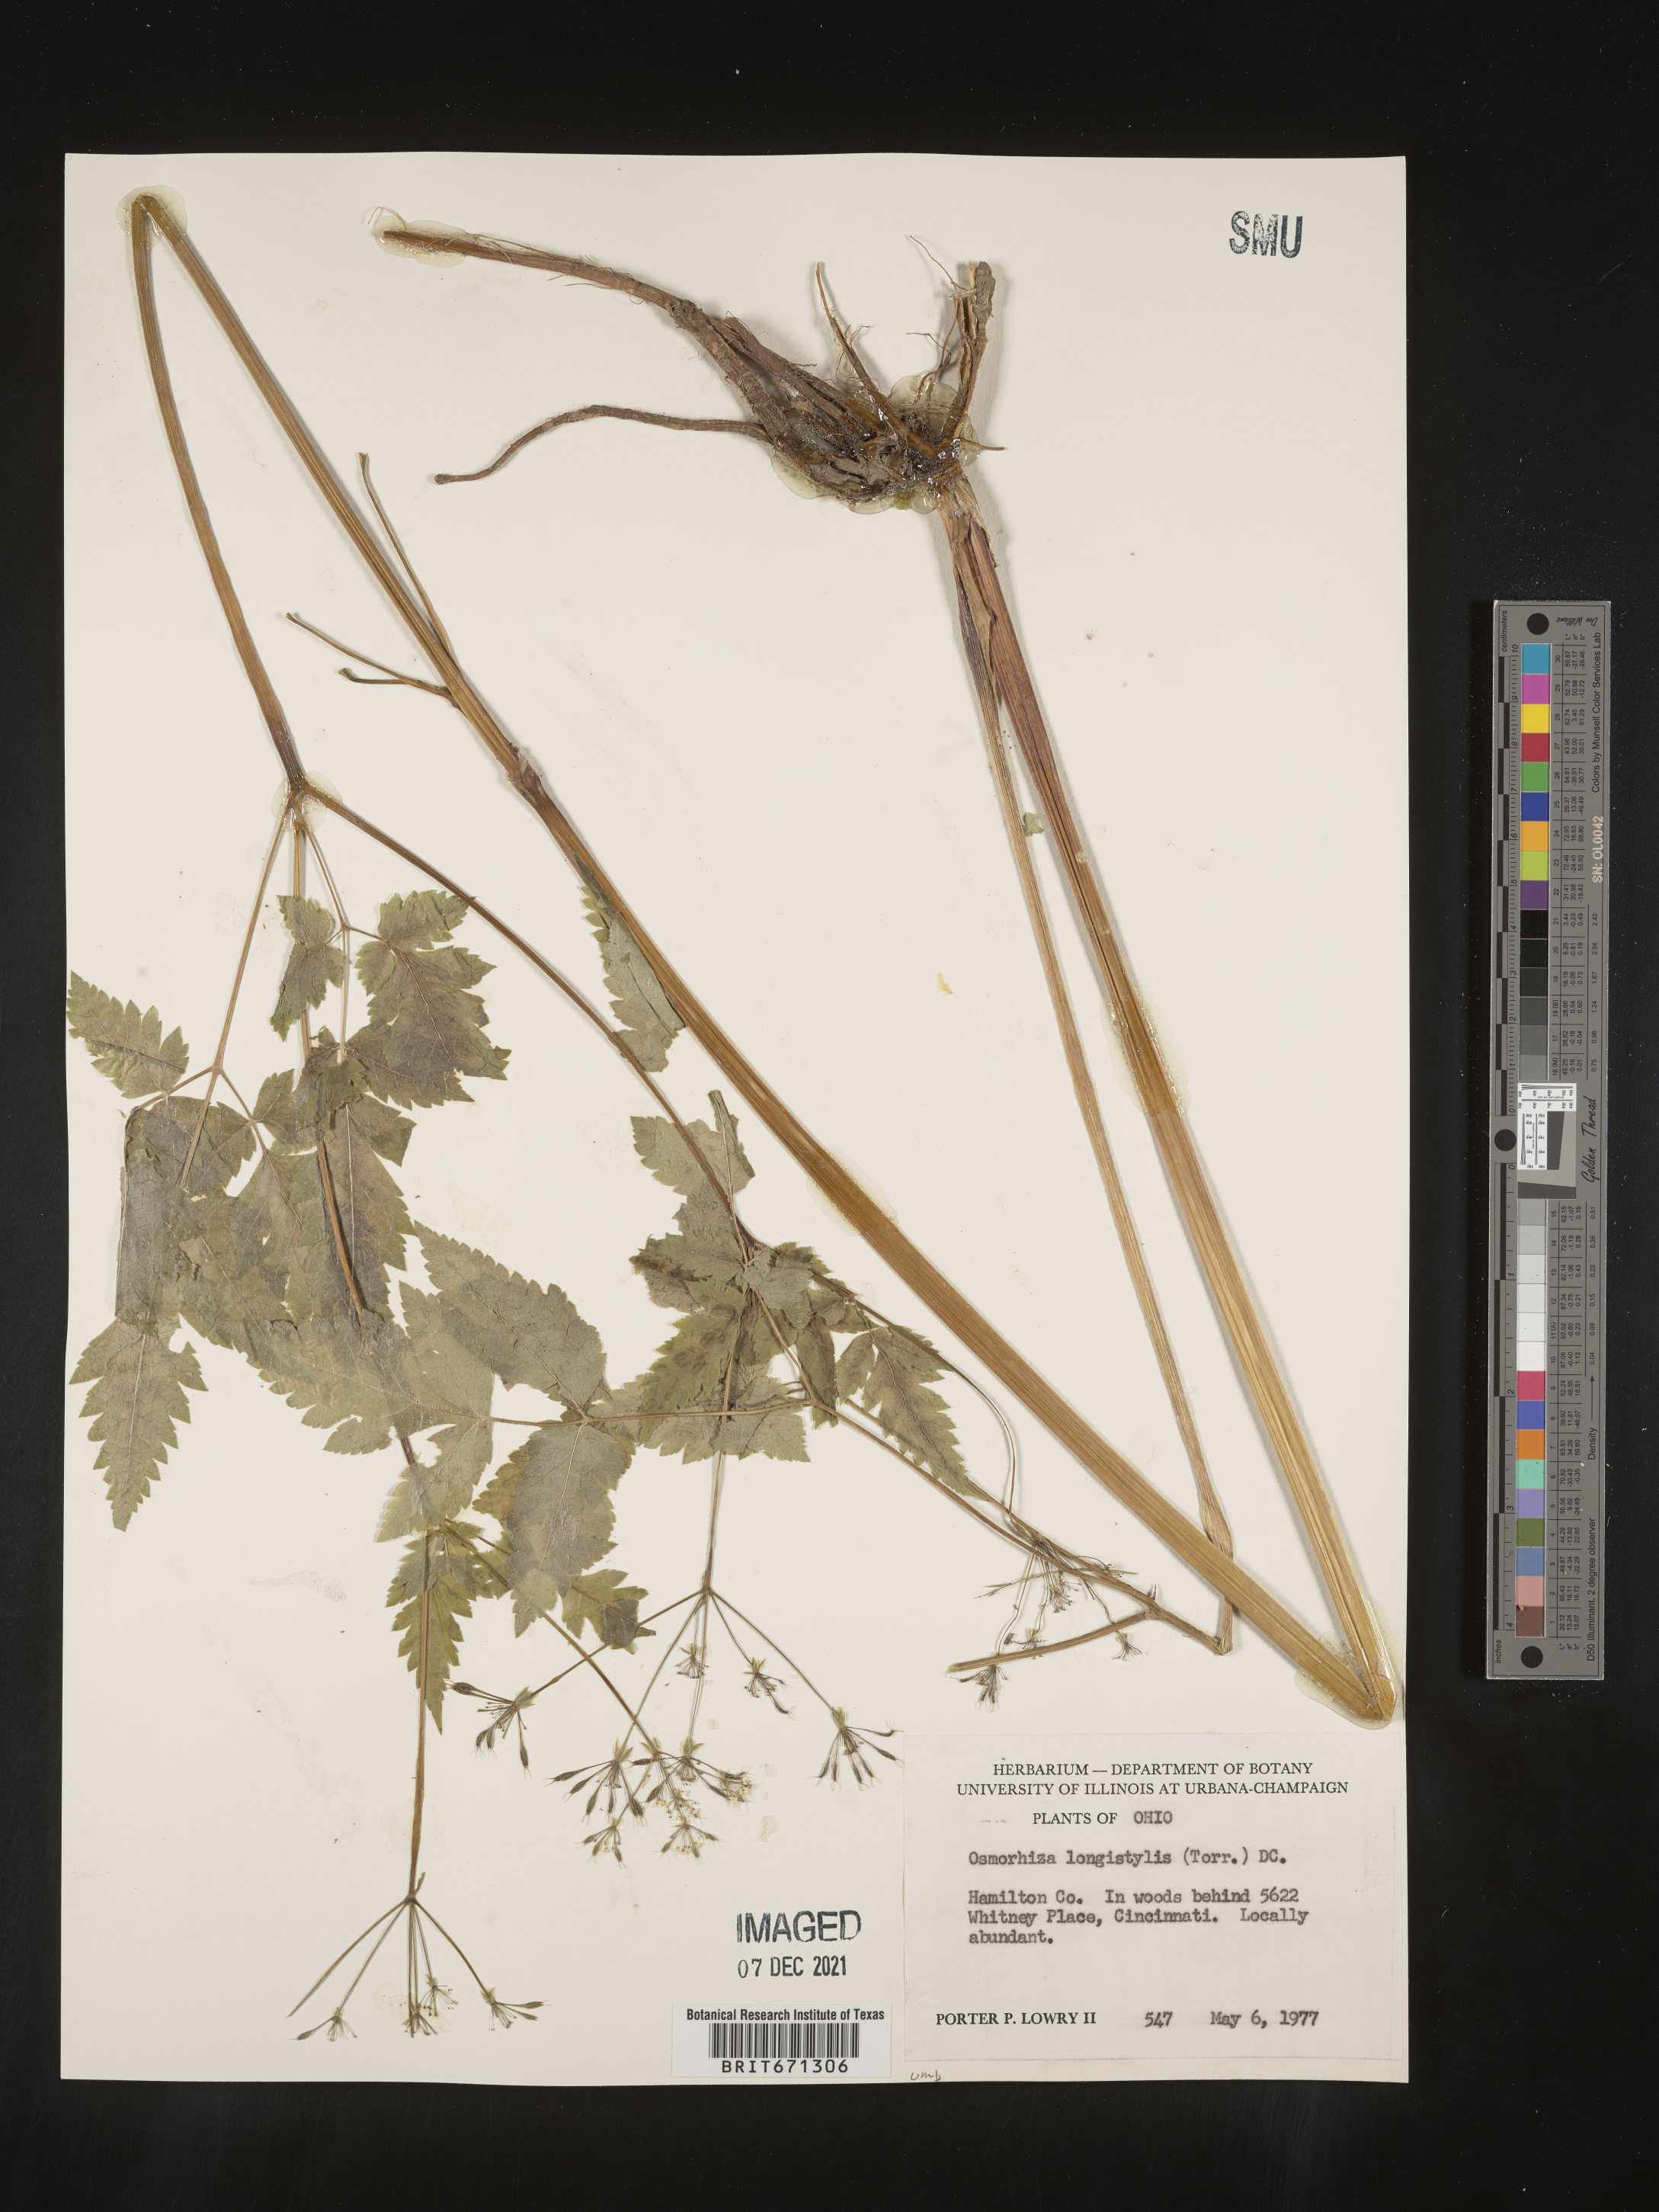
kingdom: Plantae
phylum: Tracheophyta
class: Magnoliopsida
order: Apiales
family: Apiaceae
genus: Osmorhiza
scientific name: Osmorhiza longistylis
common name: Smooth sweet cicely
